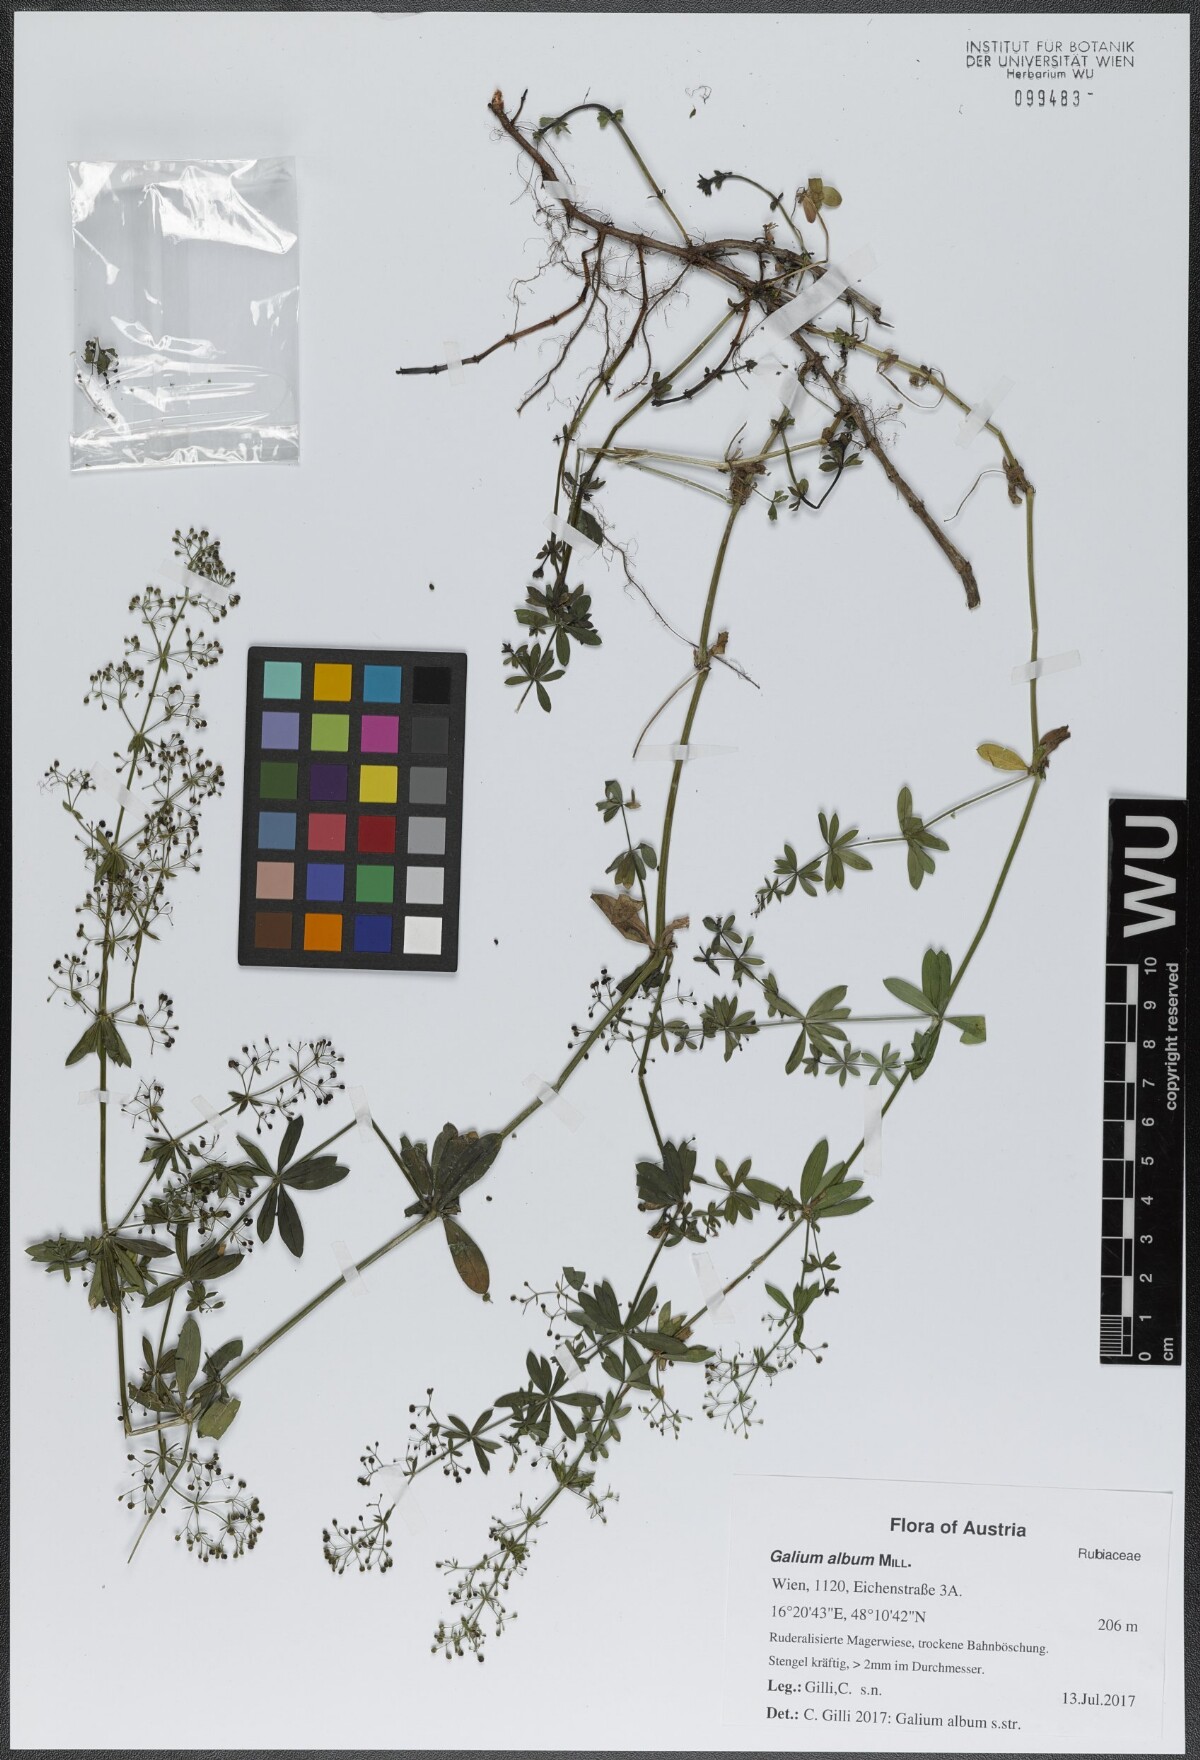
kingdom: Plantae
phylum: Tracheophyta
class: Magnoliopsida
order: Gentianales
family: Rubiaceae
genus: Galium
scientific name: Galium album
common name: White bedstraw
